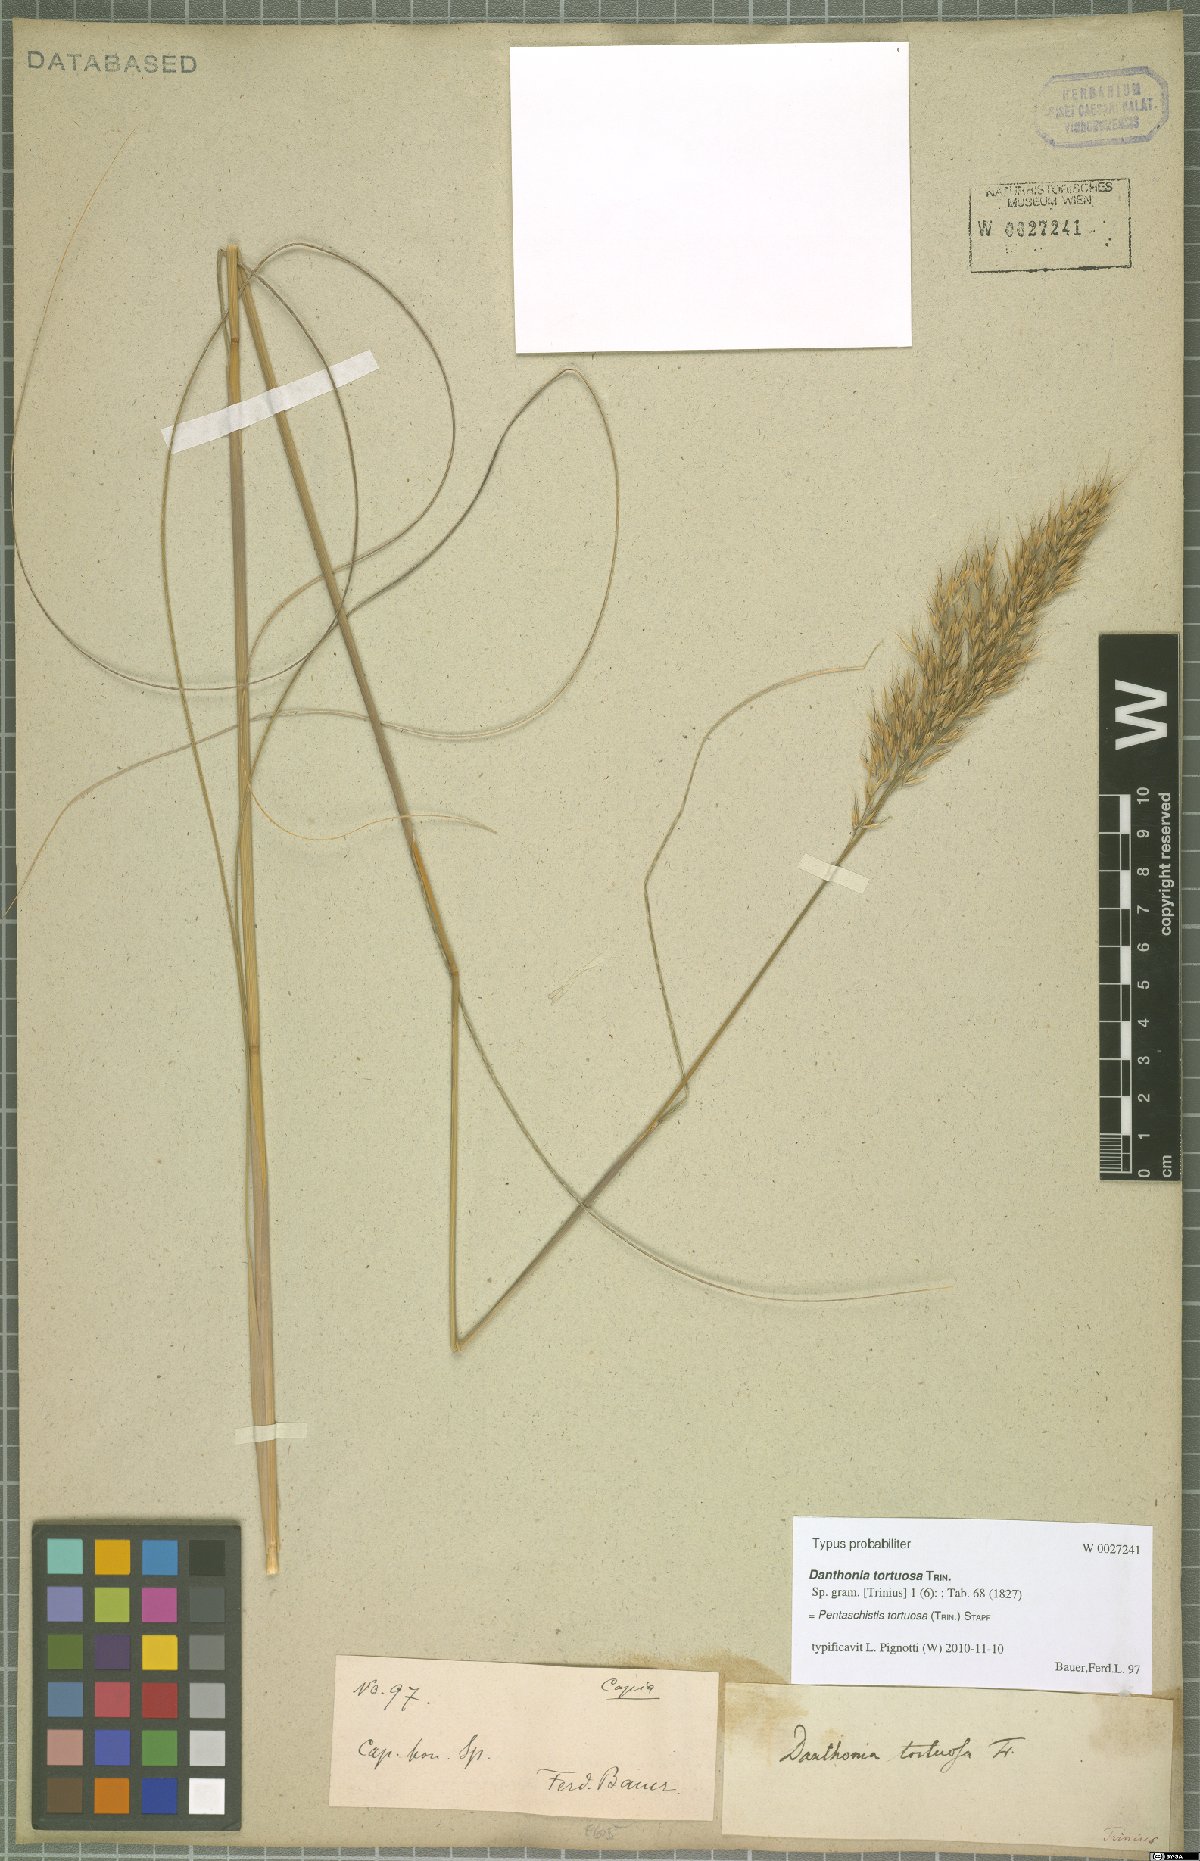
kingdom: Plantae
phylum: Tracheophyta
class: Liliopsida
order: Poales
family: Poaceae
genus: Pentameris
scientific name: Pentameris tortuosa
